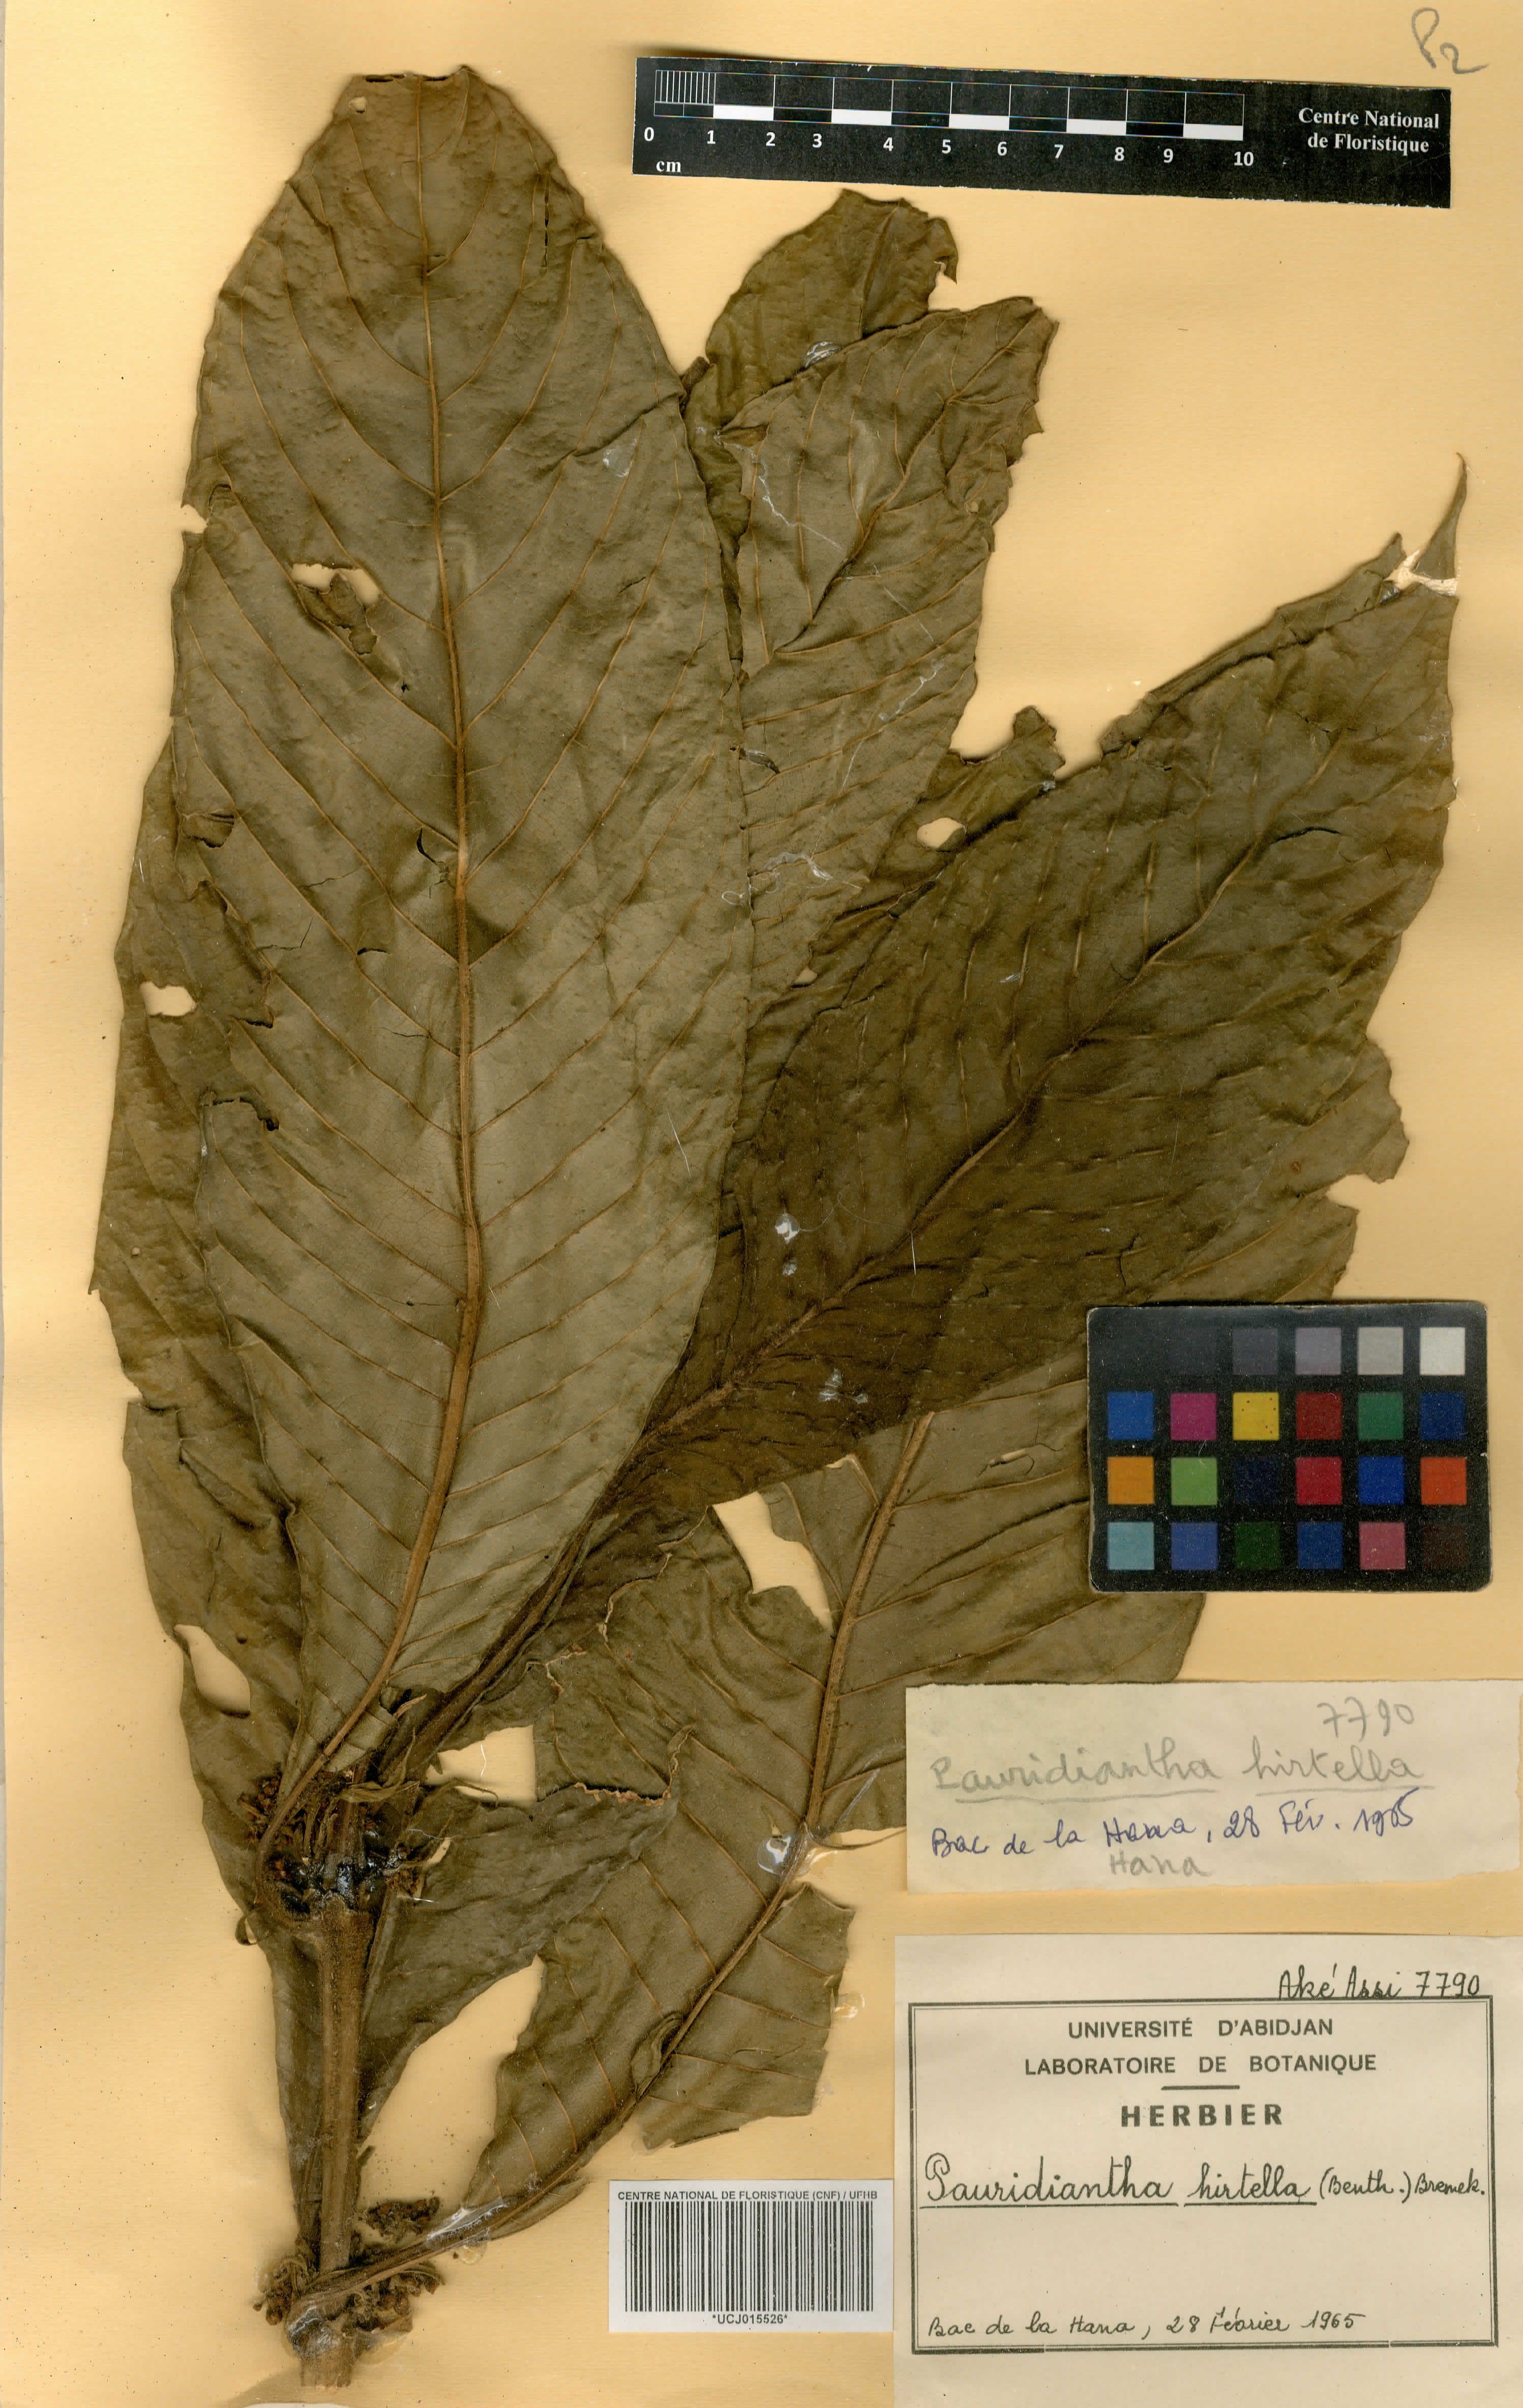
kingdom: Plantae
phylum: Tracheophyta
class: Magnoliopsida
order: Gentianales
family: Rubiaceae
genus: Pauridiantha
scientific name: Pauridiantha hirtella
